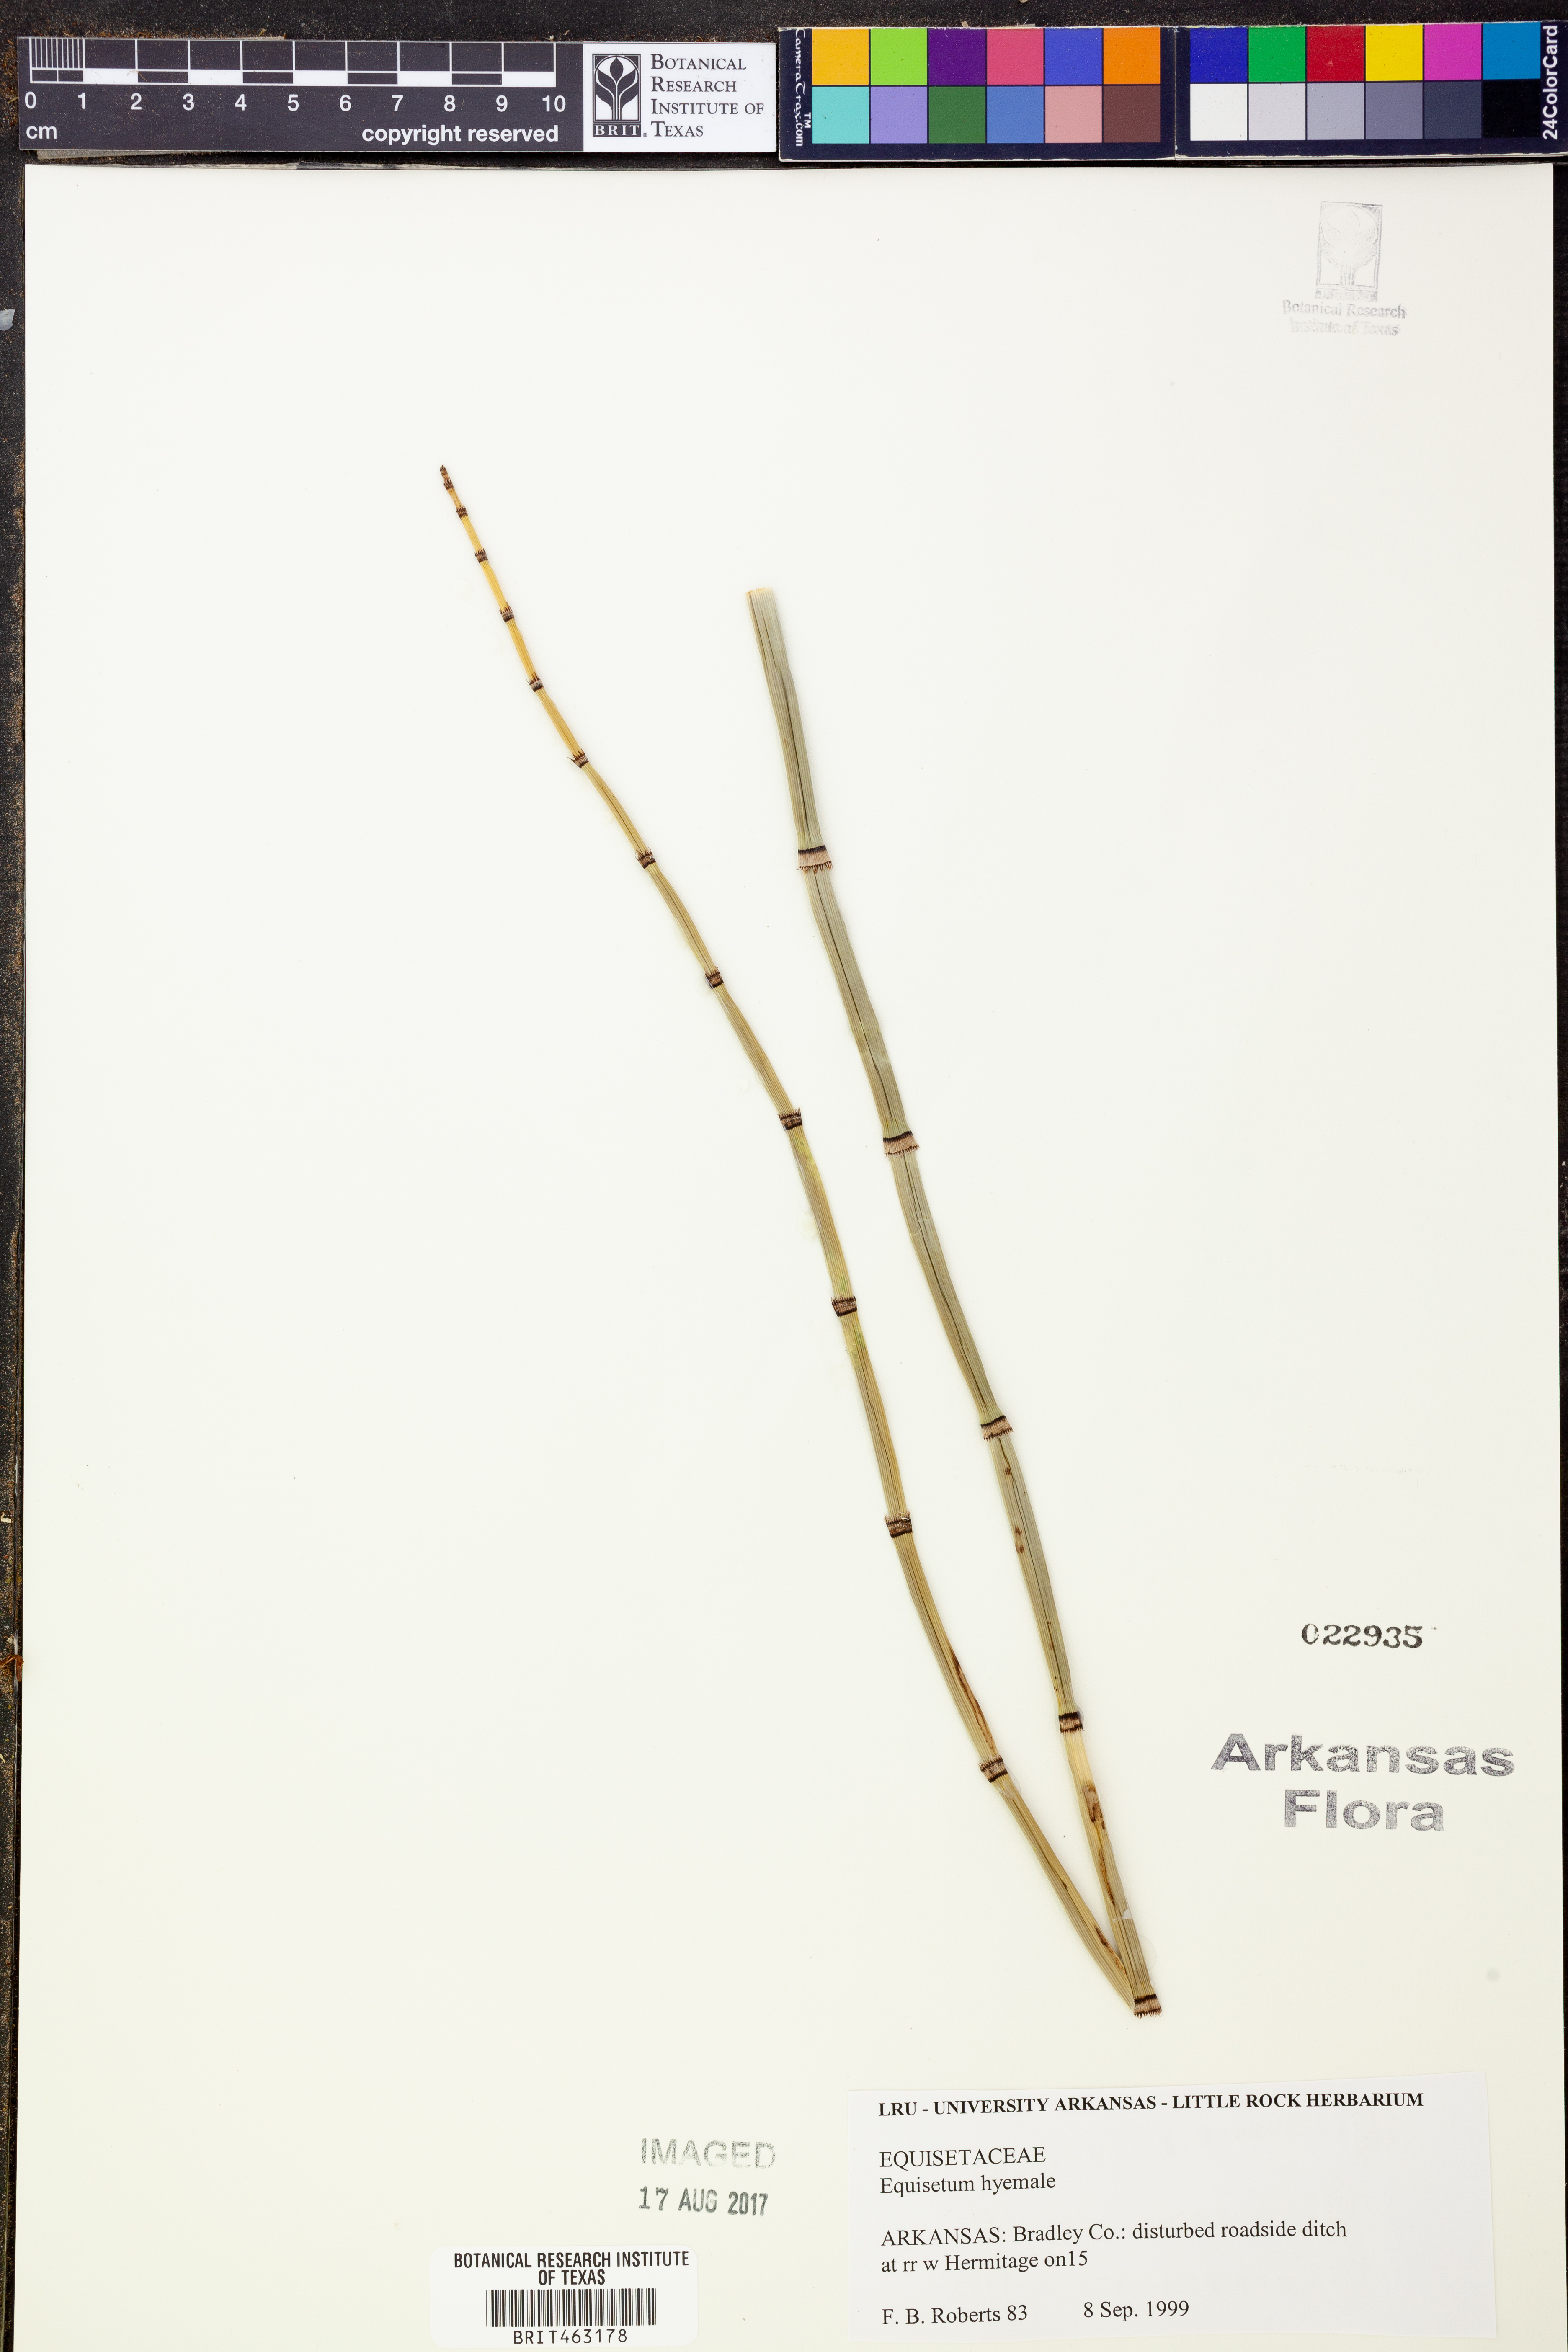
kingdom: Plantae
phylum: Tracheophyta
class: Polypodiopsida
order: Equisetales
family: Equisetaceae
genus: Equisetum
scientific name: Equisetum hyemale
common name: Rough horsetail
